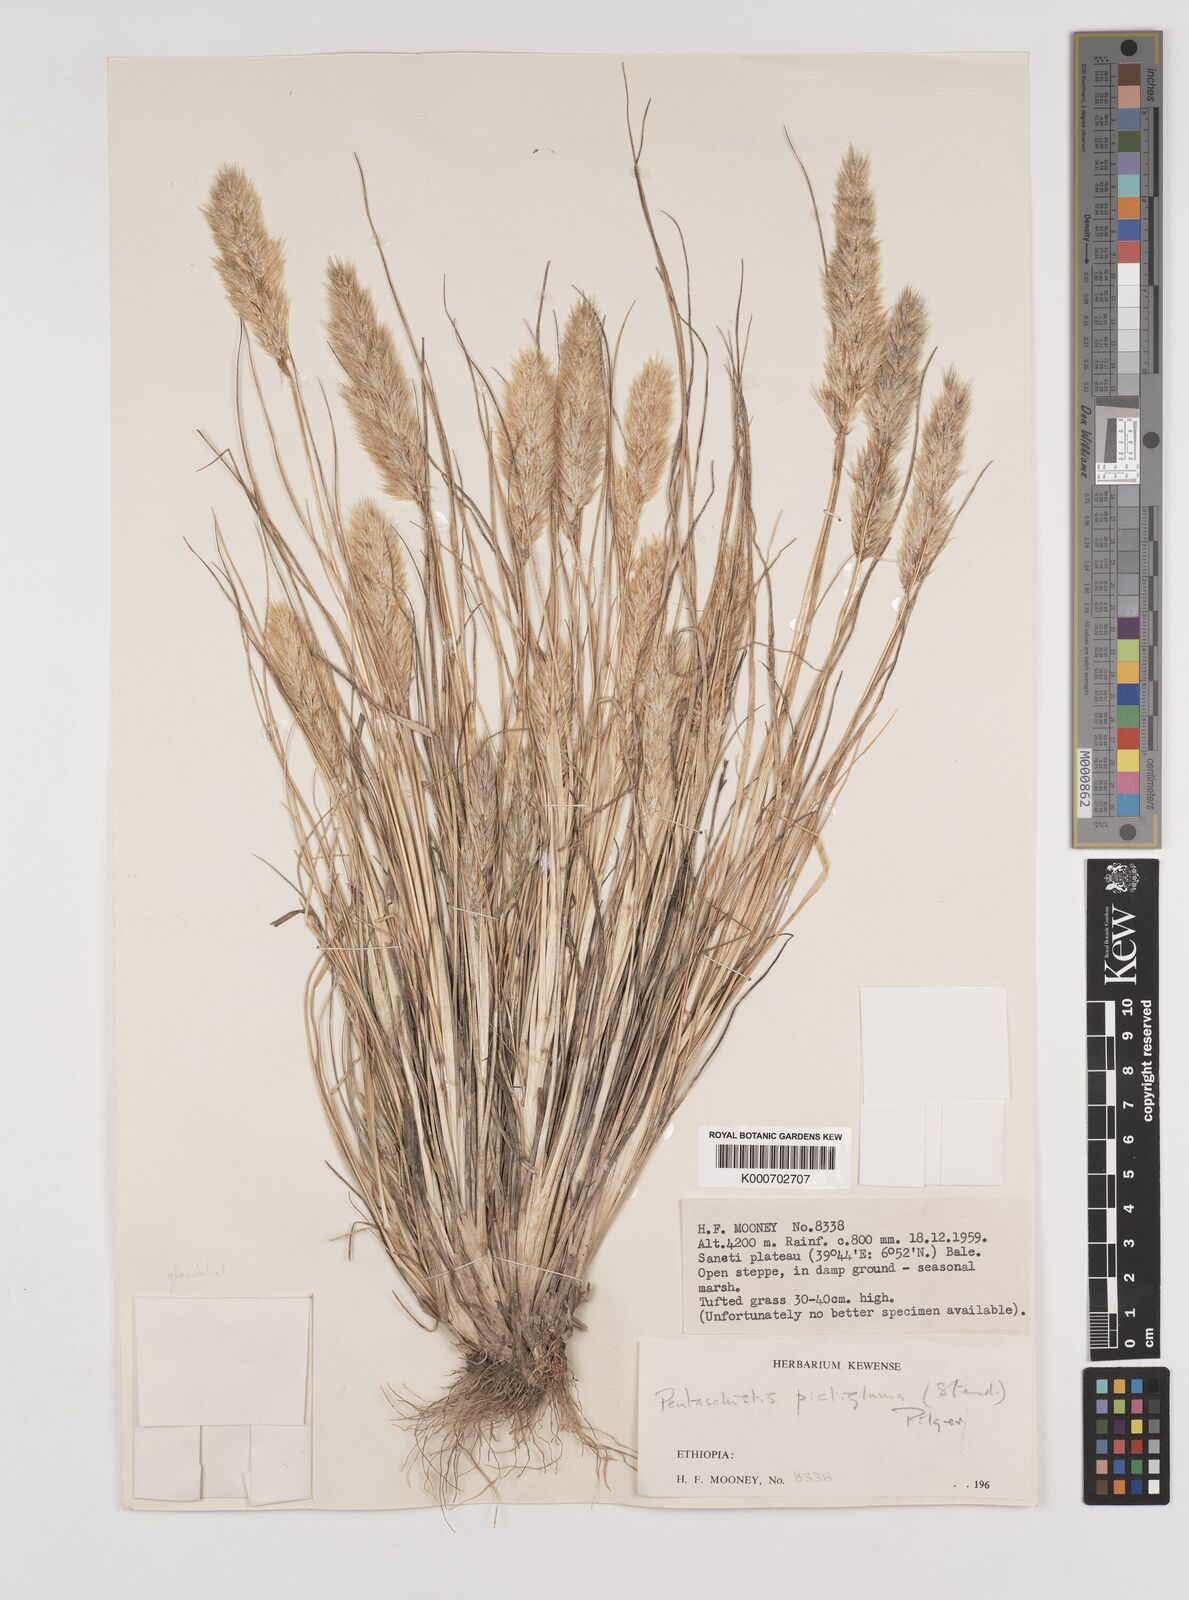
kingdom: Plantae
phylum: Tracheophyta
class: Liliopsida
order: Poales
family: Poaceae
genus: Pentameris
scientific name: Pentameris pictigluma
